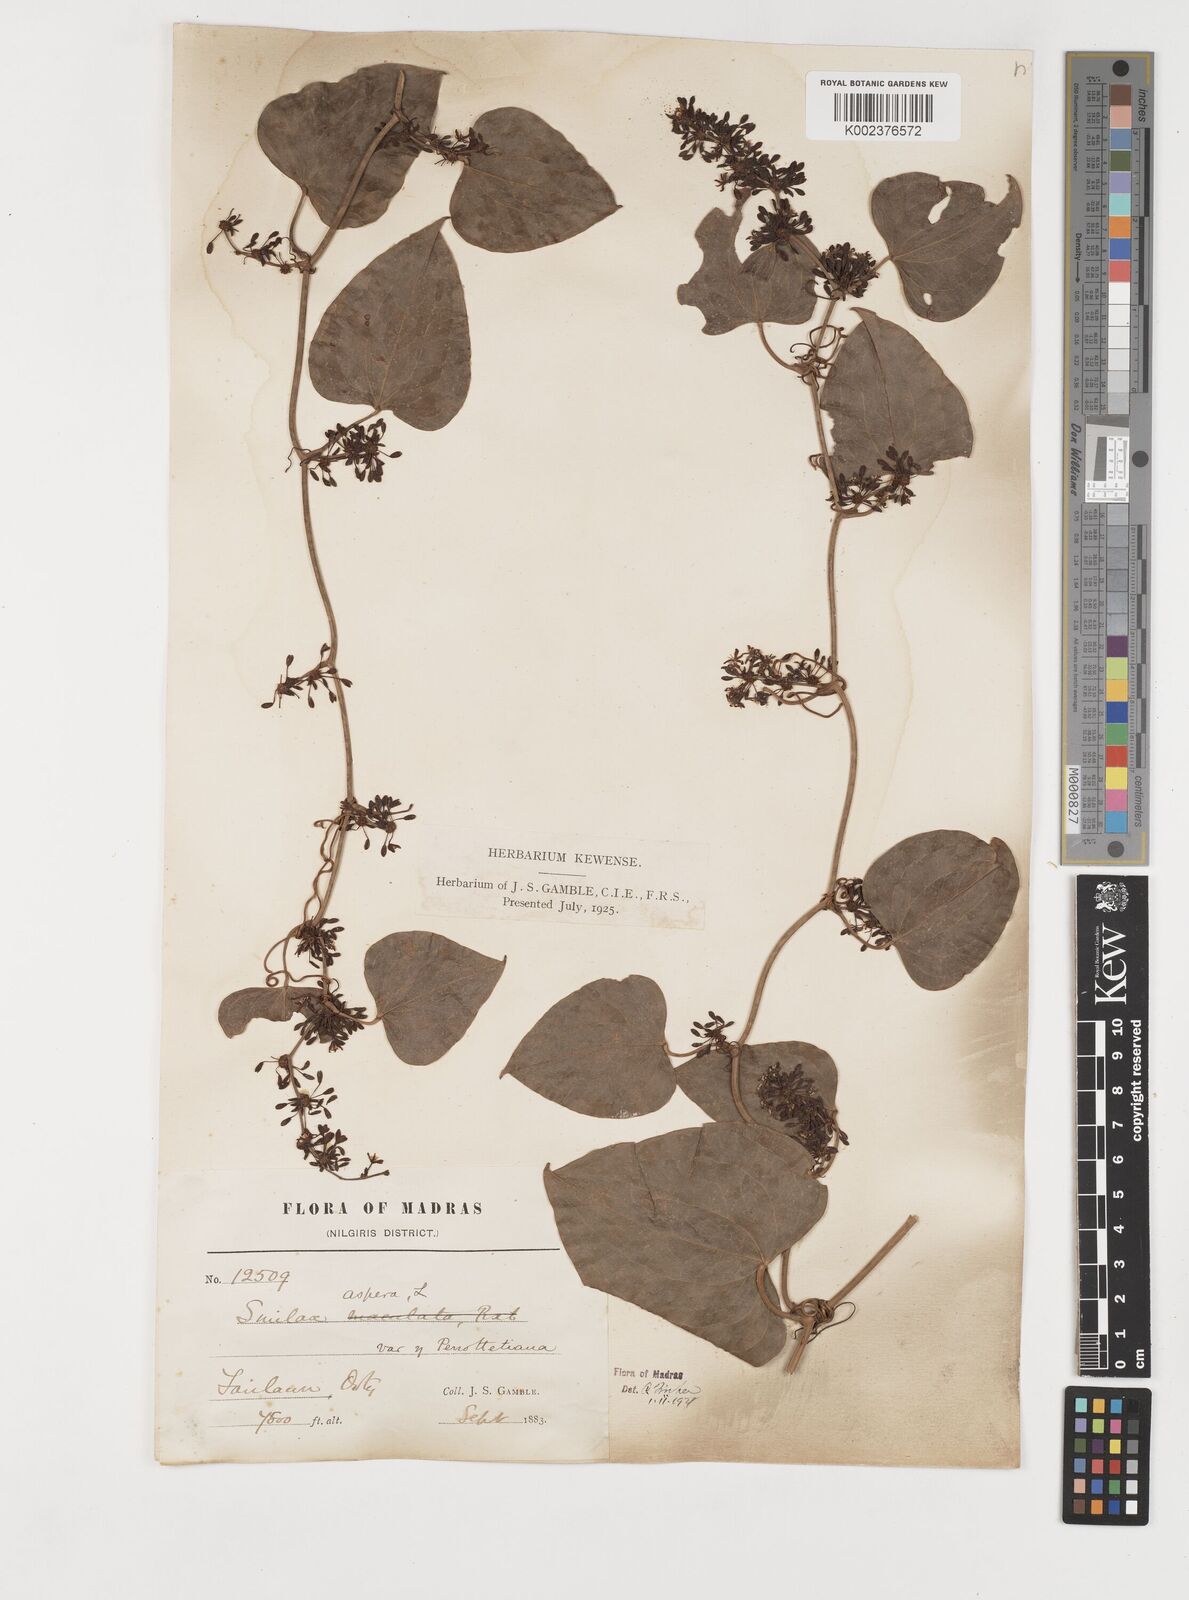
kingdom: Plantae
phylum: Tracheophyta
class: Liliopsida
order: Liliales
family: Smilacaceae
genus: Smilax
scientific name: Smilax aspera
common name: Common smilax
